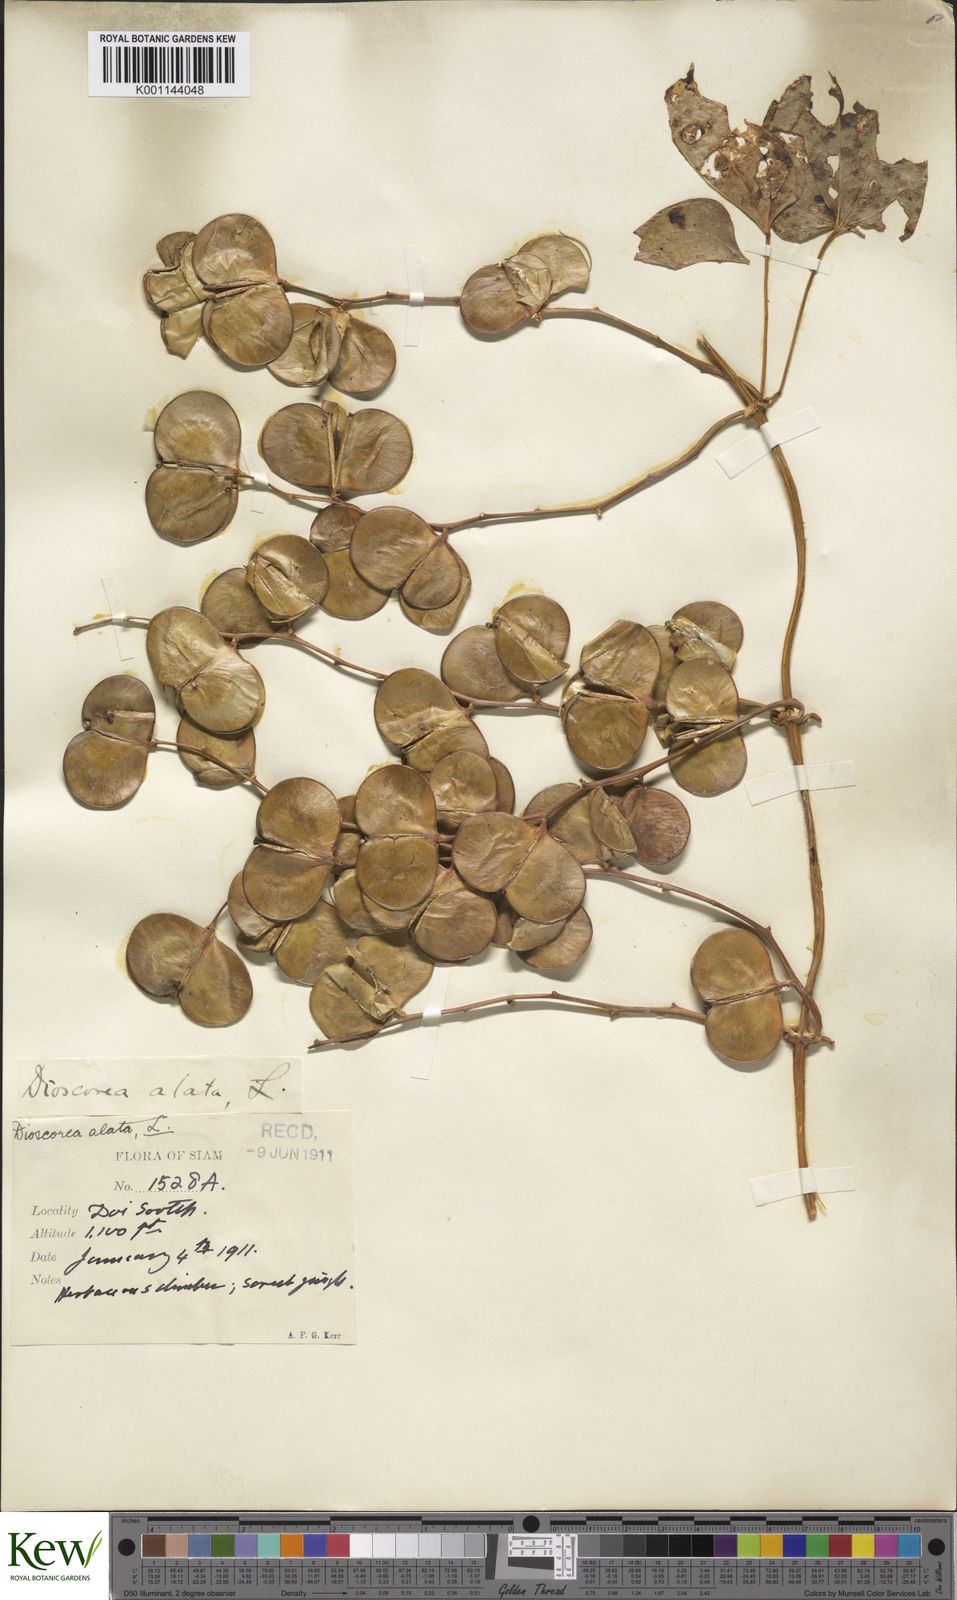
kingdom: Plantae
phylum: Tracheophyta
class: Liliopsida
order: Dioscoreales
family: Dioscoreaceae
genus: Dioscorea
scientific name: Dioscorea alata
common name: Water yam
